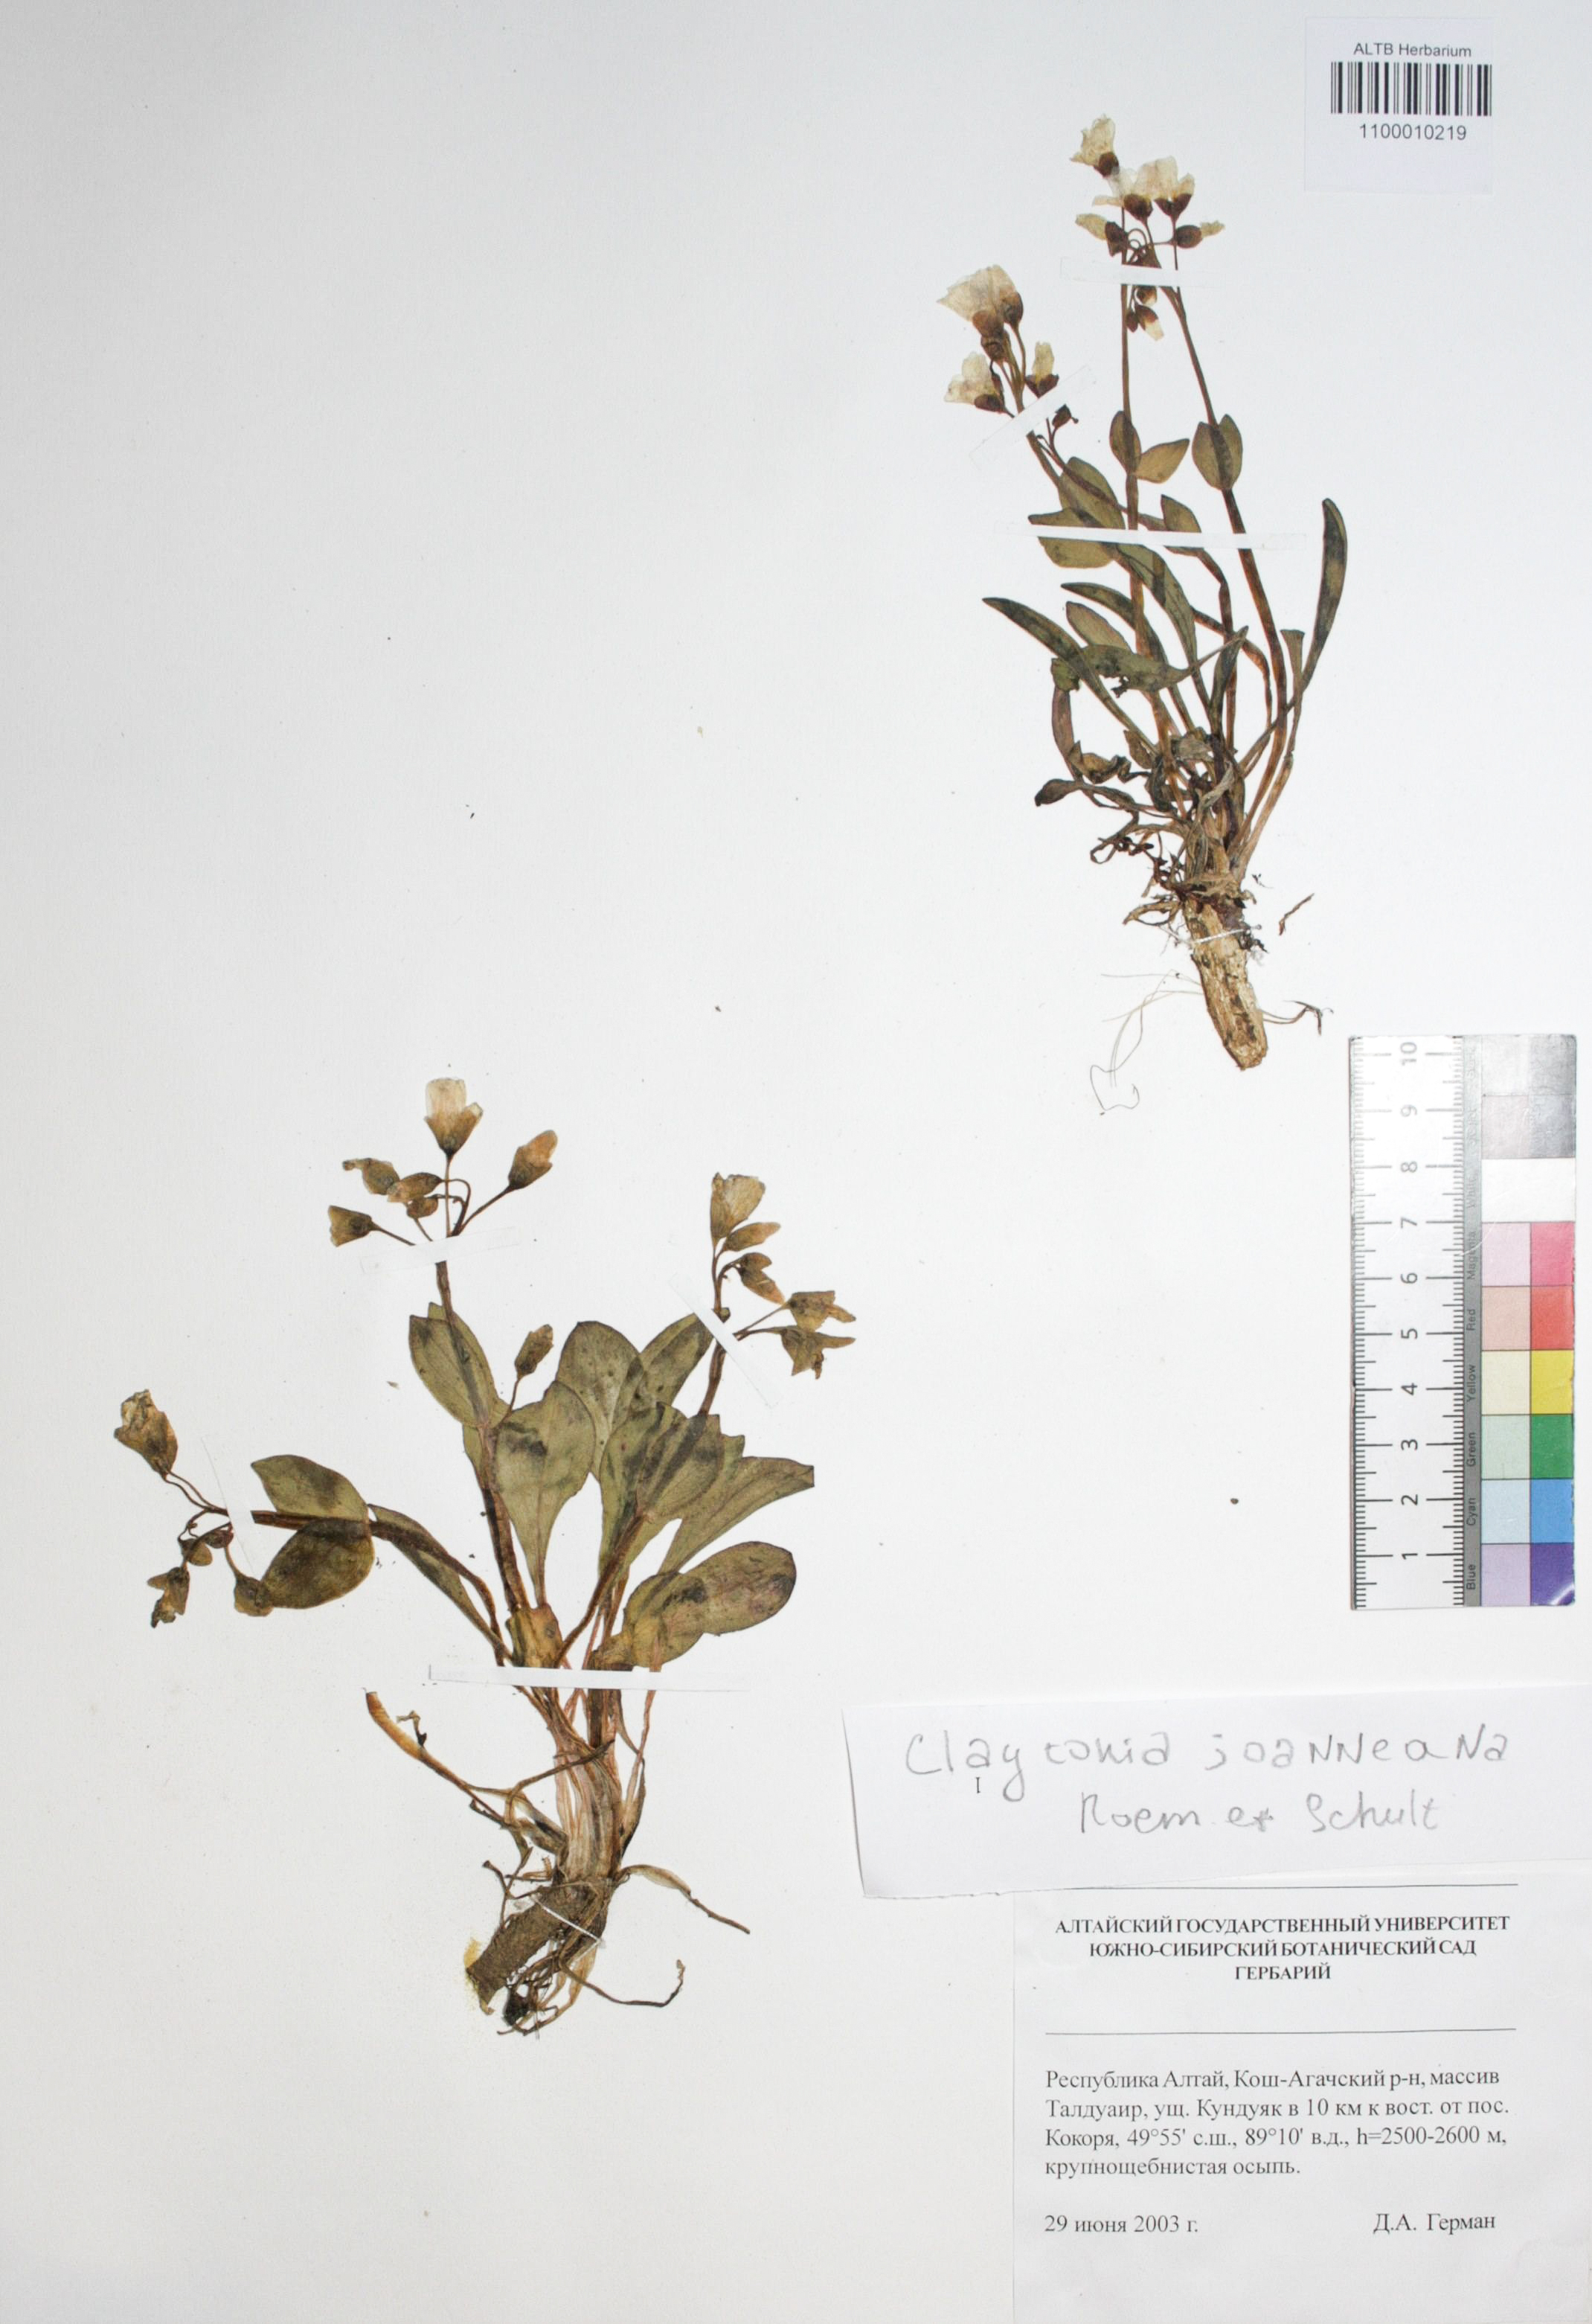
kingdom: Plantae
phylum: Tracheophyta
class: Magnoliopsida
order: Caryophyllales
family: Montiaceae
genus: Claytonia
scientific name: Claytonia joanneana
